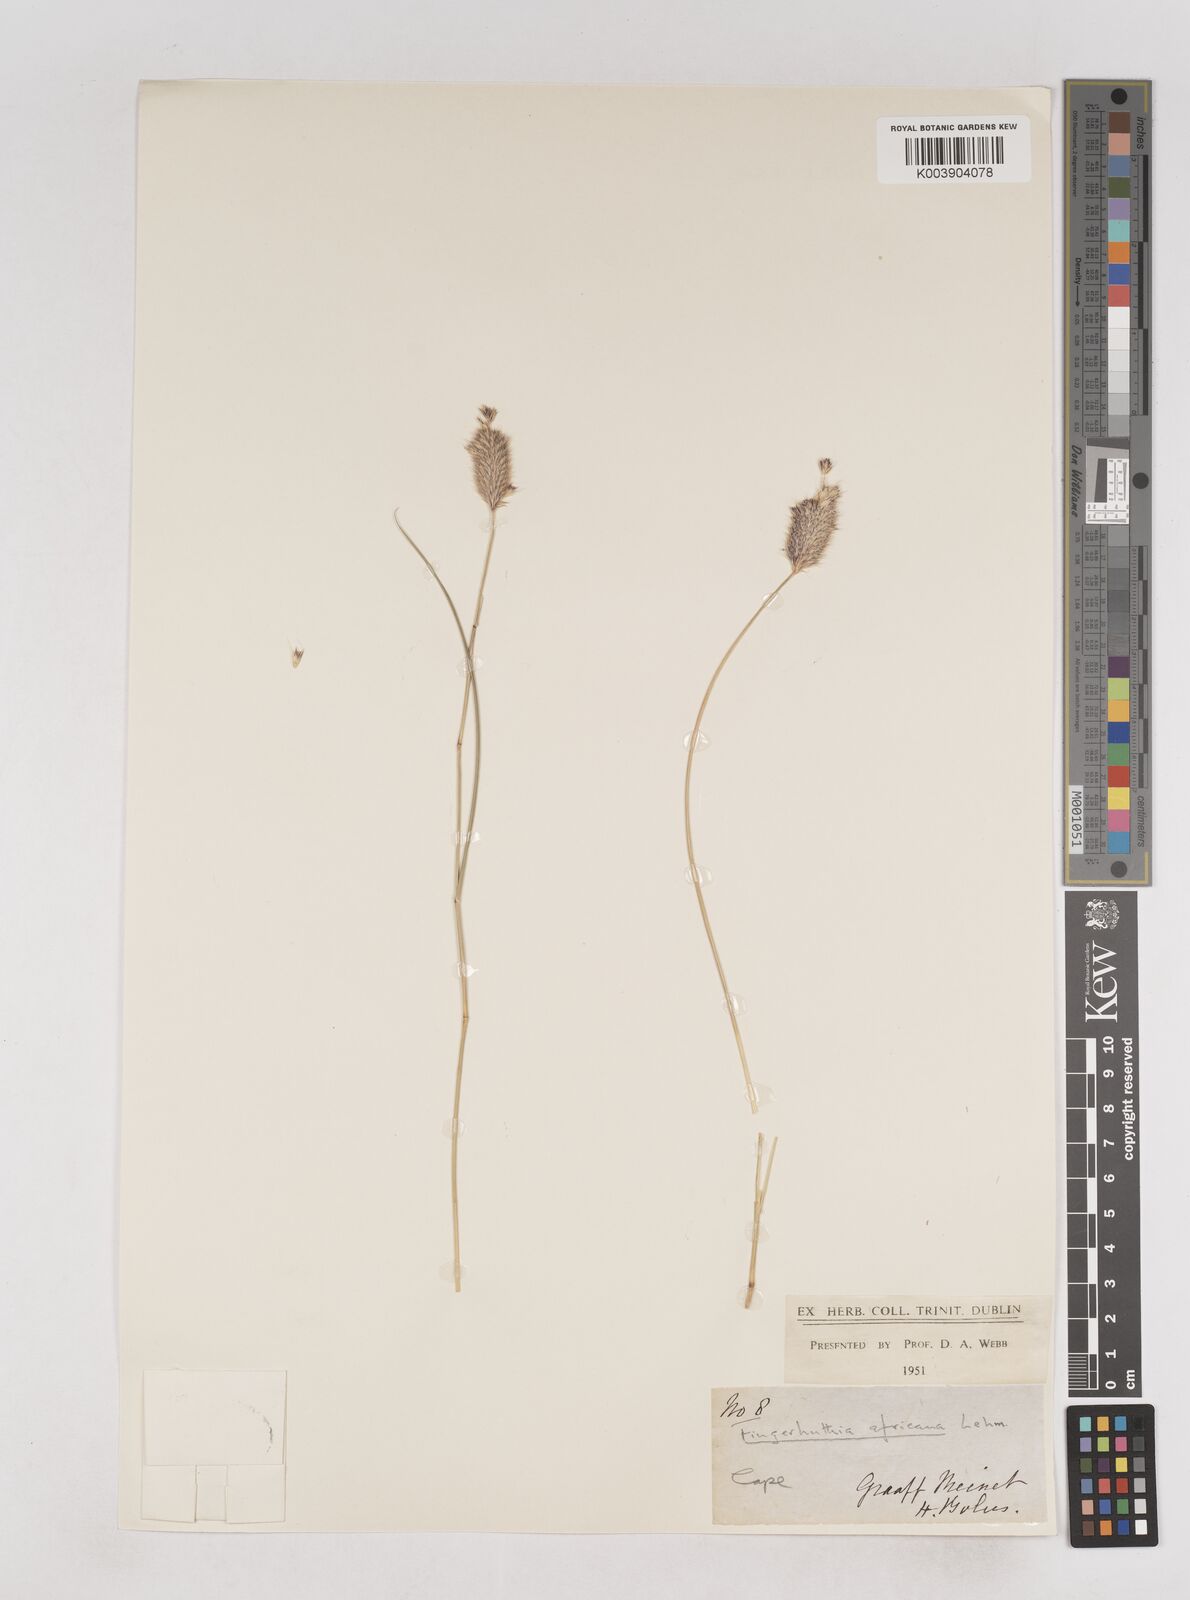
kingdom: Plantae
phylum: Tracheophyta
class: Liliopsida
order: Poales
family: Poaceae
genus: Fingerhuthia
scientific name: Fingerhuthia africana
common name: Zulu fescue
